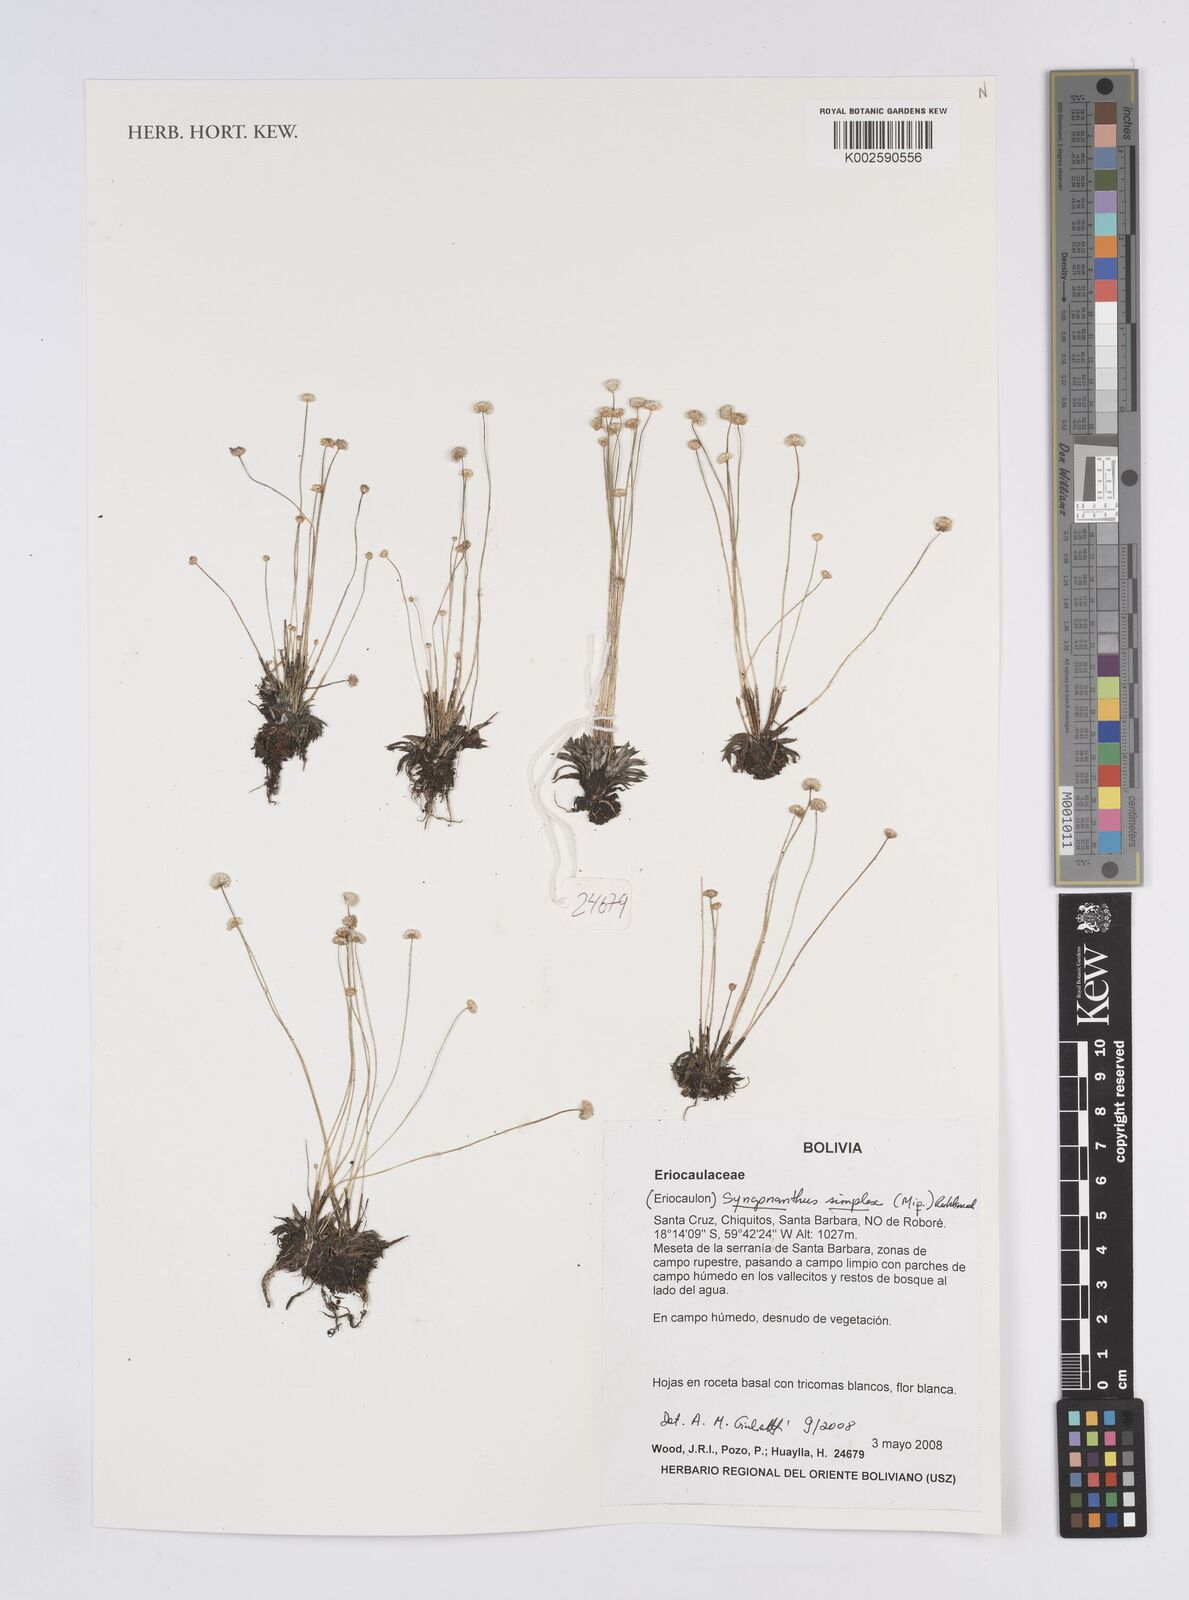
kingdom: Plantae
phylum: Tracheophyta
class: Liliopsida
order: Poales
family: Eriocaulaceae
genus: Syngonanthus
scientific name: Syngonanthus simplex
